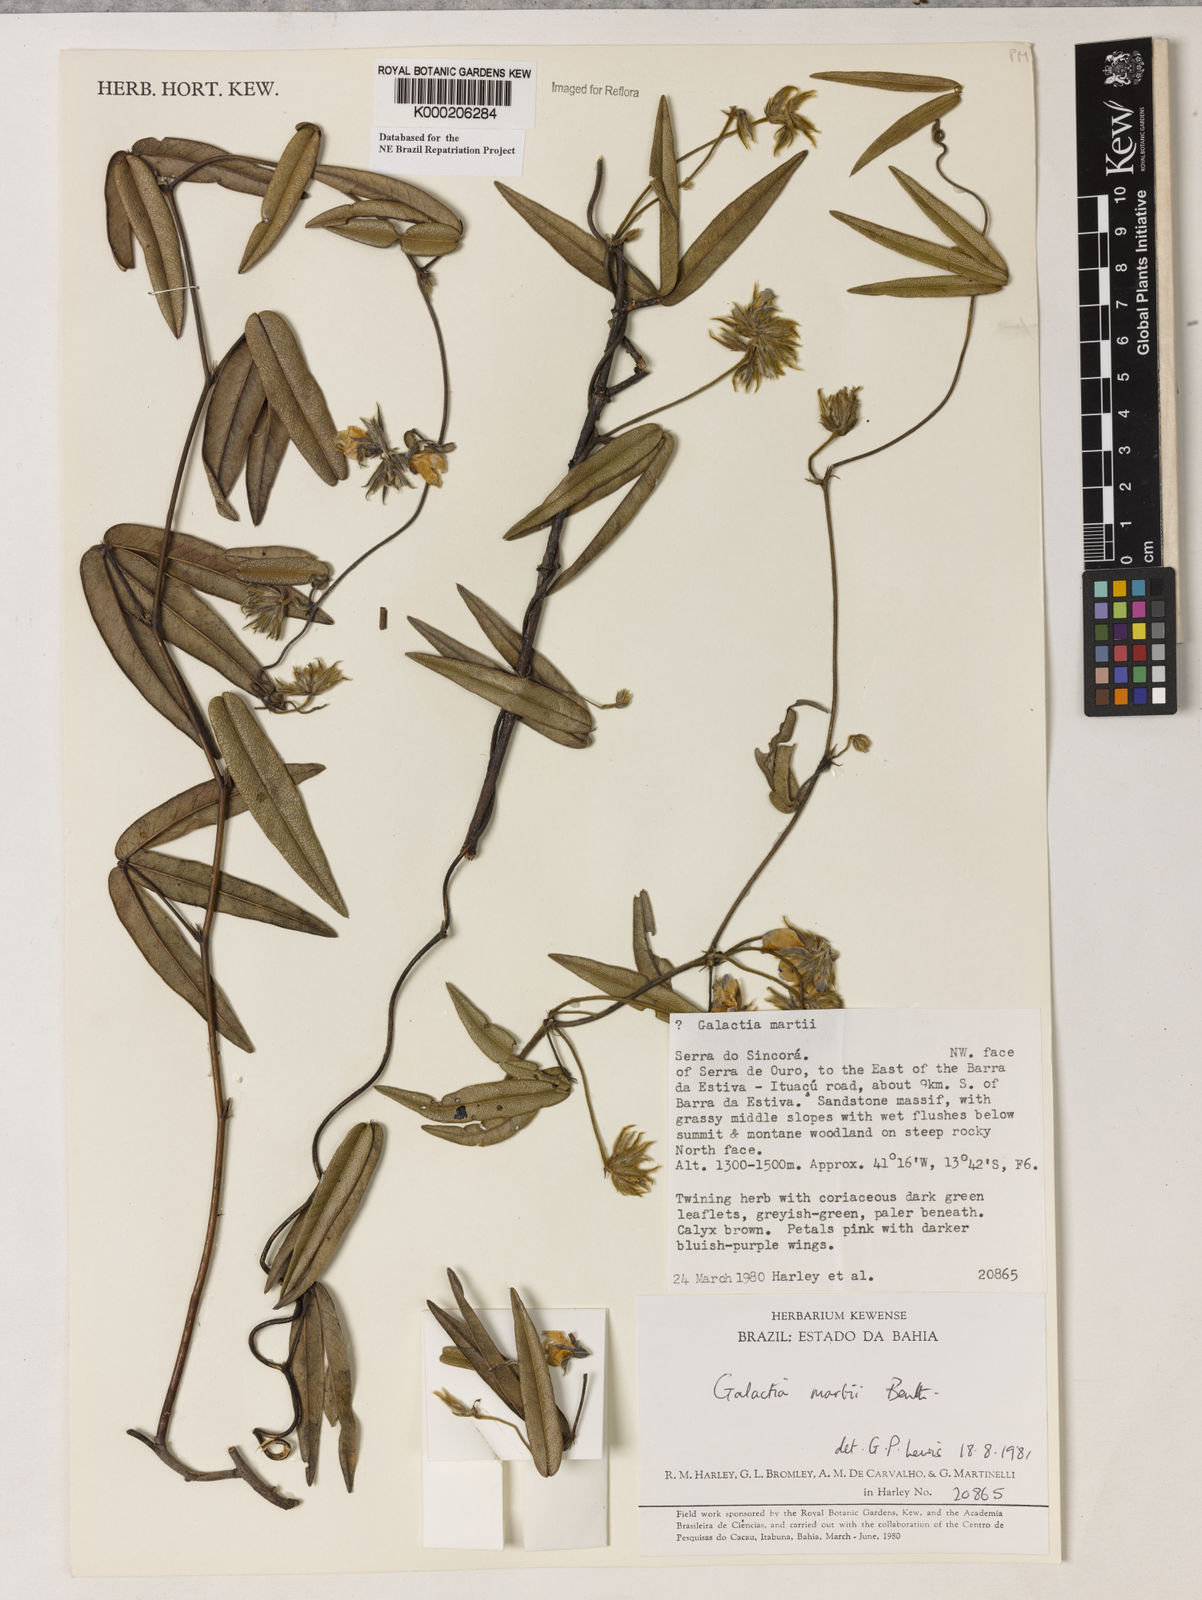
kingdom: Plantae
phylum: Tracheophyta
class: Magnoliopsida
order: Fabales
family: Fabaceae
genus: Betencourtia
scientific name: Betencourtia martii
